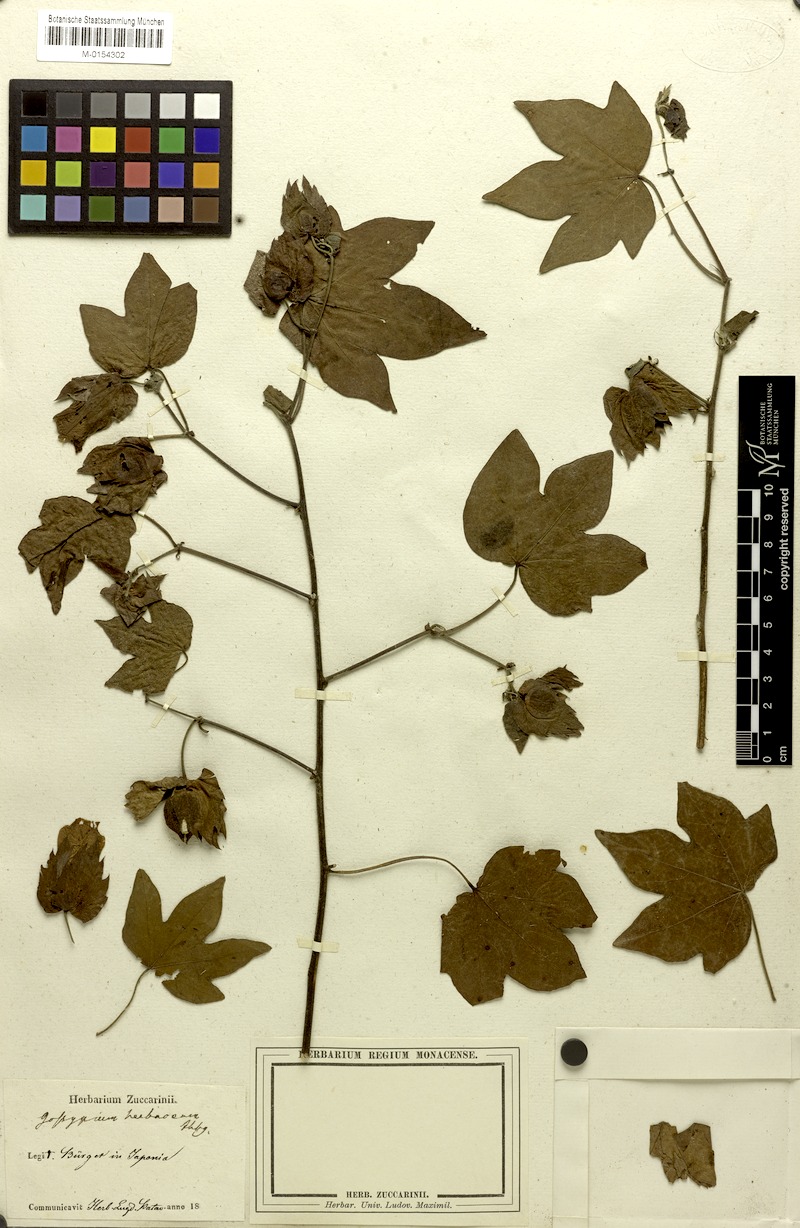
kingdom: Plantae
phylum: Tracheophyta
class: Magnoliopsida
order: Malvales
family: Malvaceae
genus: Gossypium
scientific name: Gossypium herbaceum
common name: Levant cotton
